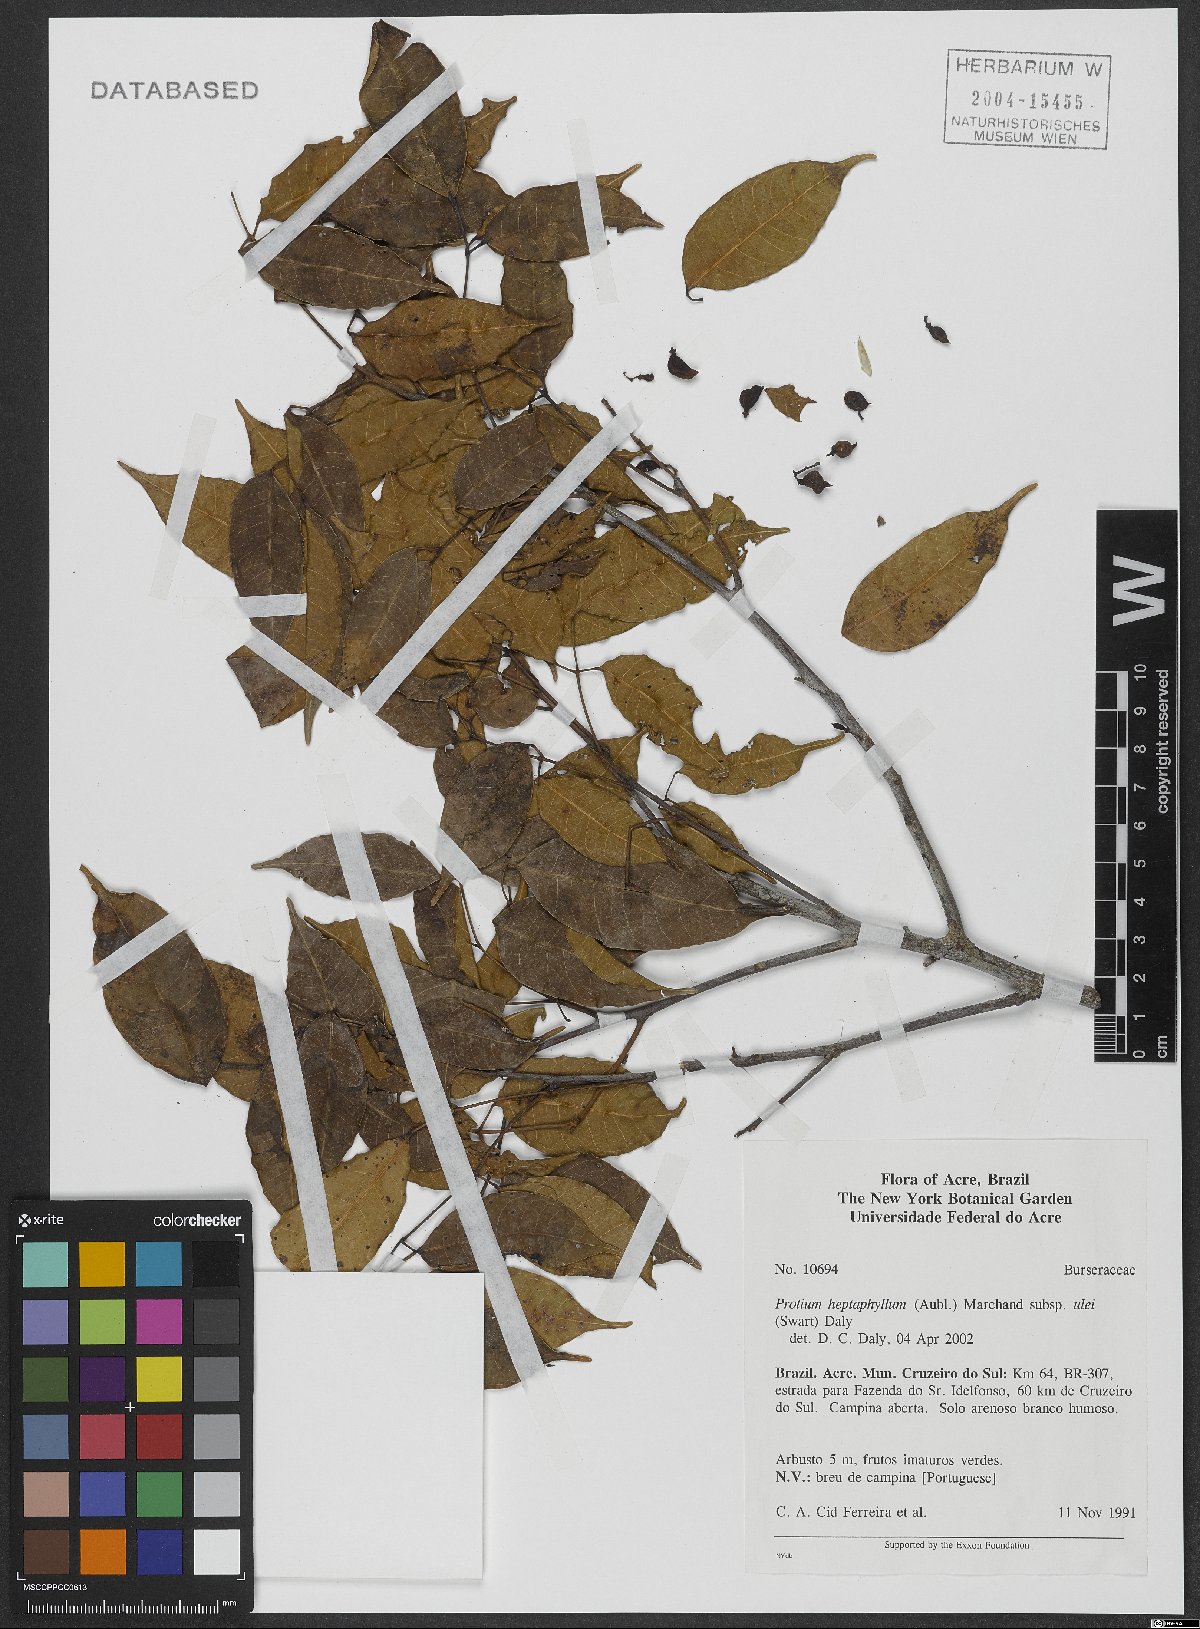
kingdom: Plantae
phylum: Tracheophyta
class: Magnoliopsida
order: Sapindales
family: Burseraceae
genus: Protium
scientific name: Protium heptaphyllum
